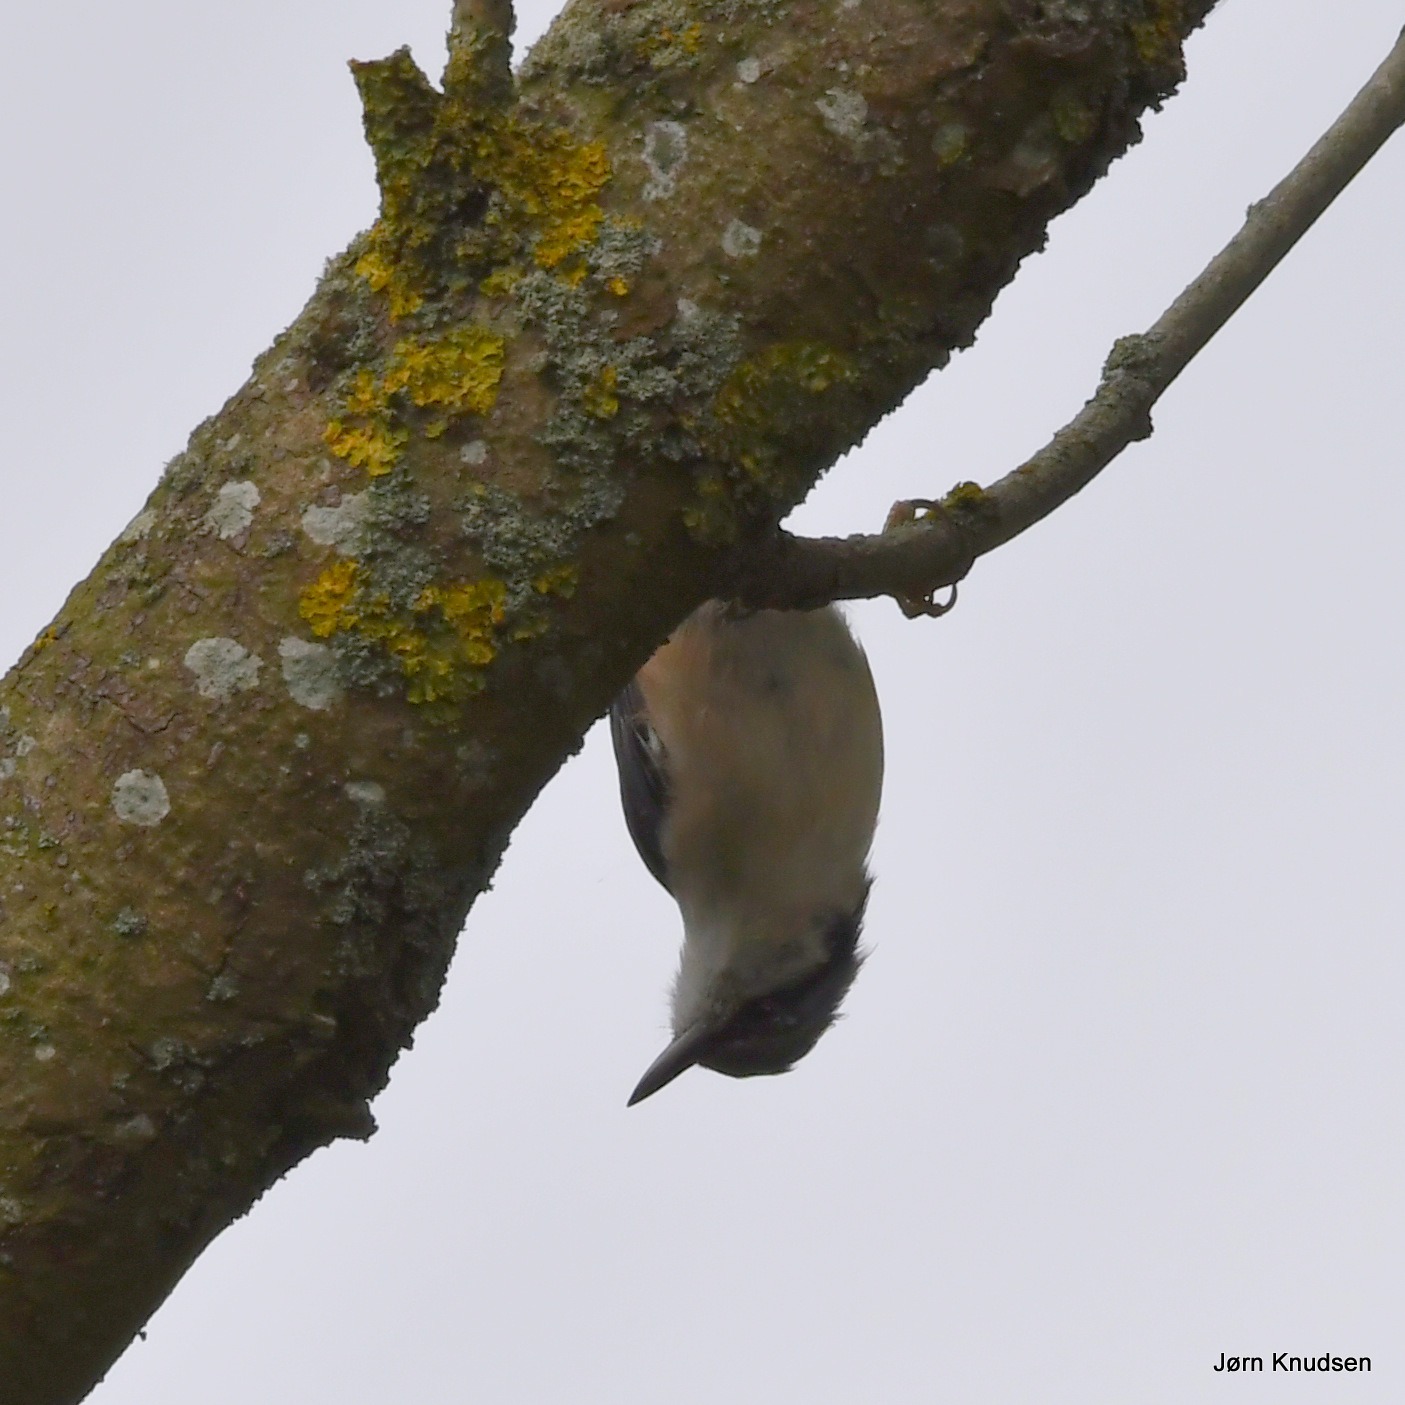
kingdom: Animalia
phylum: Chordata
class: Aves
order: Passeriformes
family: Sittidae
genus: Sitta
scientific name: Sitta europaea
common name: Spætmejse
